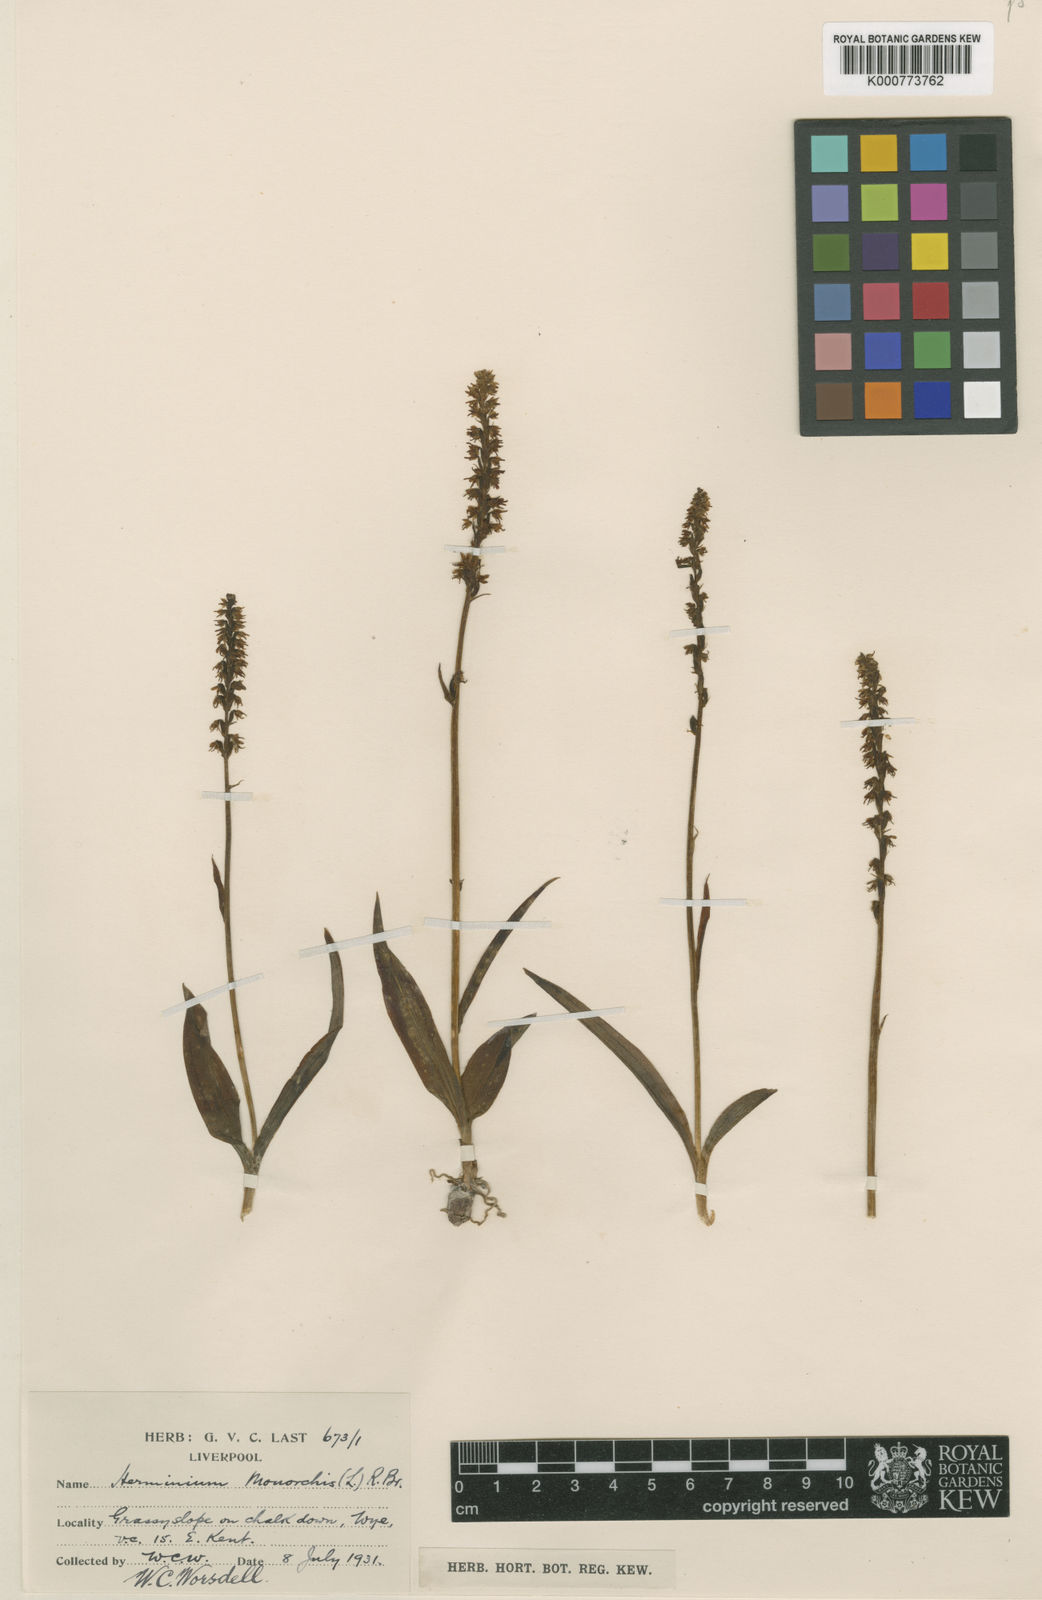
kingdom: Plantae
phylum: Tracheophyta
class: Liliopsida
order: Asparagales
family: Orchidaceae
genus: Herminium
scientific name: Herminium monorchis
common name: Musk orchid
